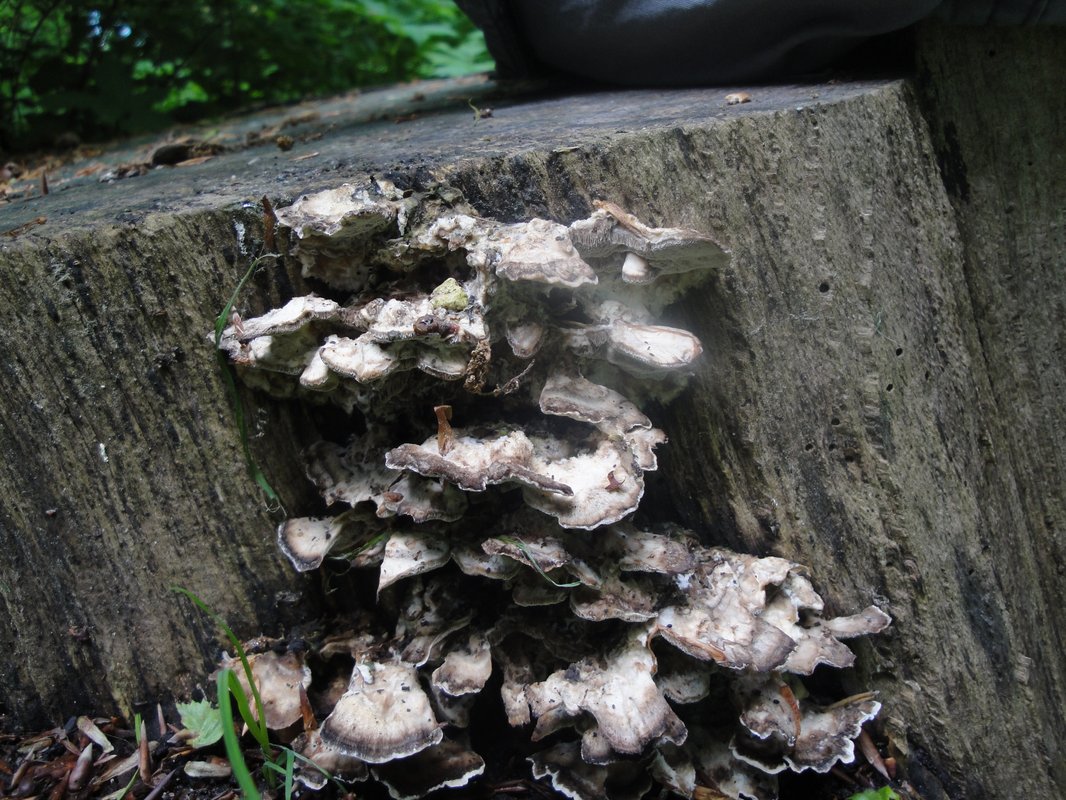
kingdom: Fungi
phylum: Basidiomycota
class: Agaricomycetes
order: Polyporales
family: Phanerochaetaceae
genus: Bjerkandera
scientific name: Bjerkandera adusta
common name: sveden sodporesvamp
